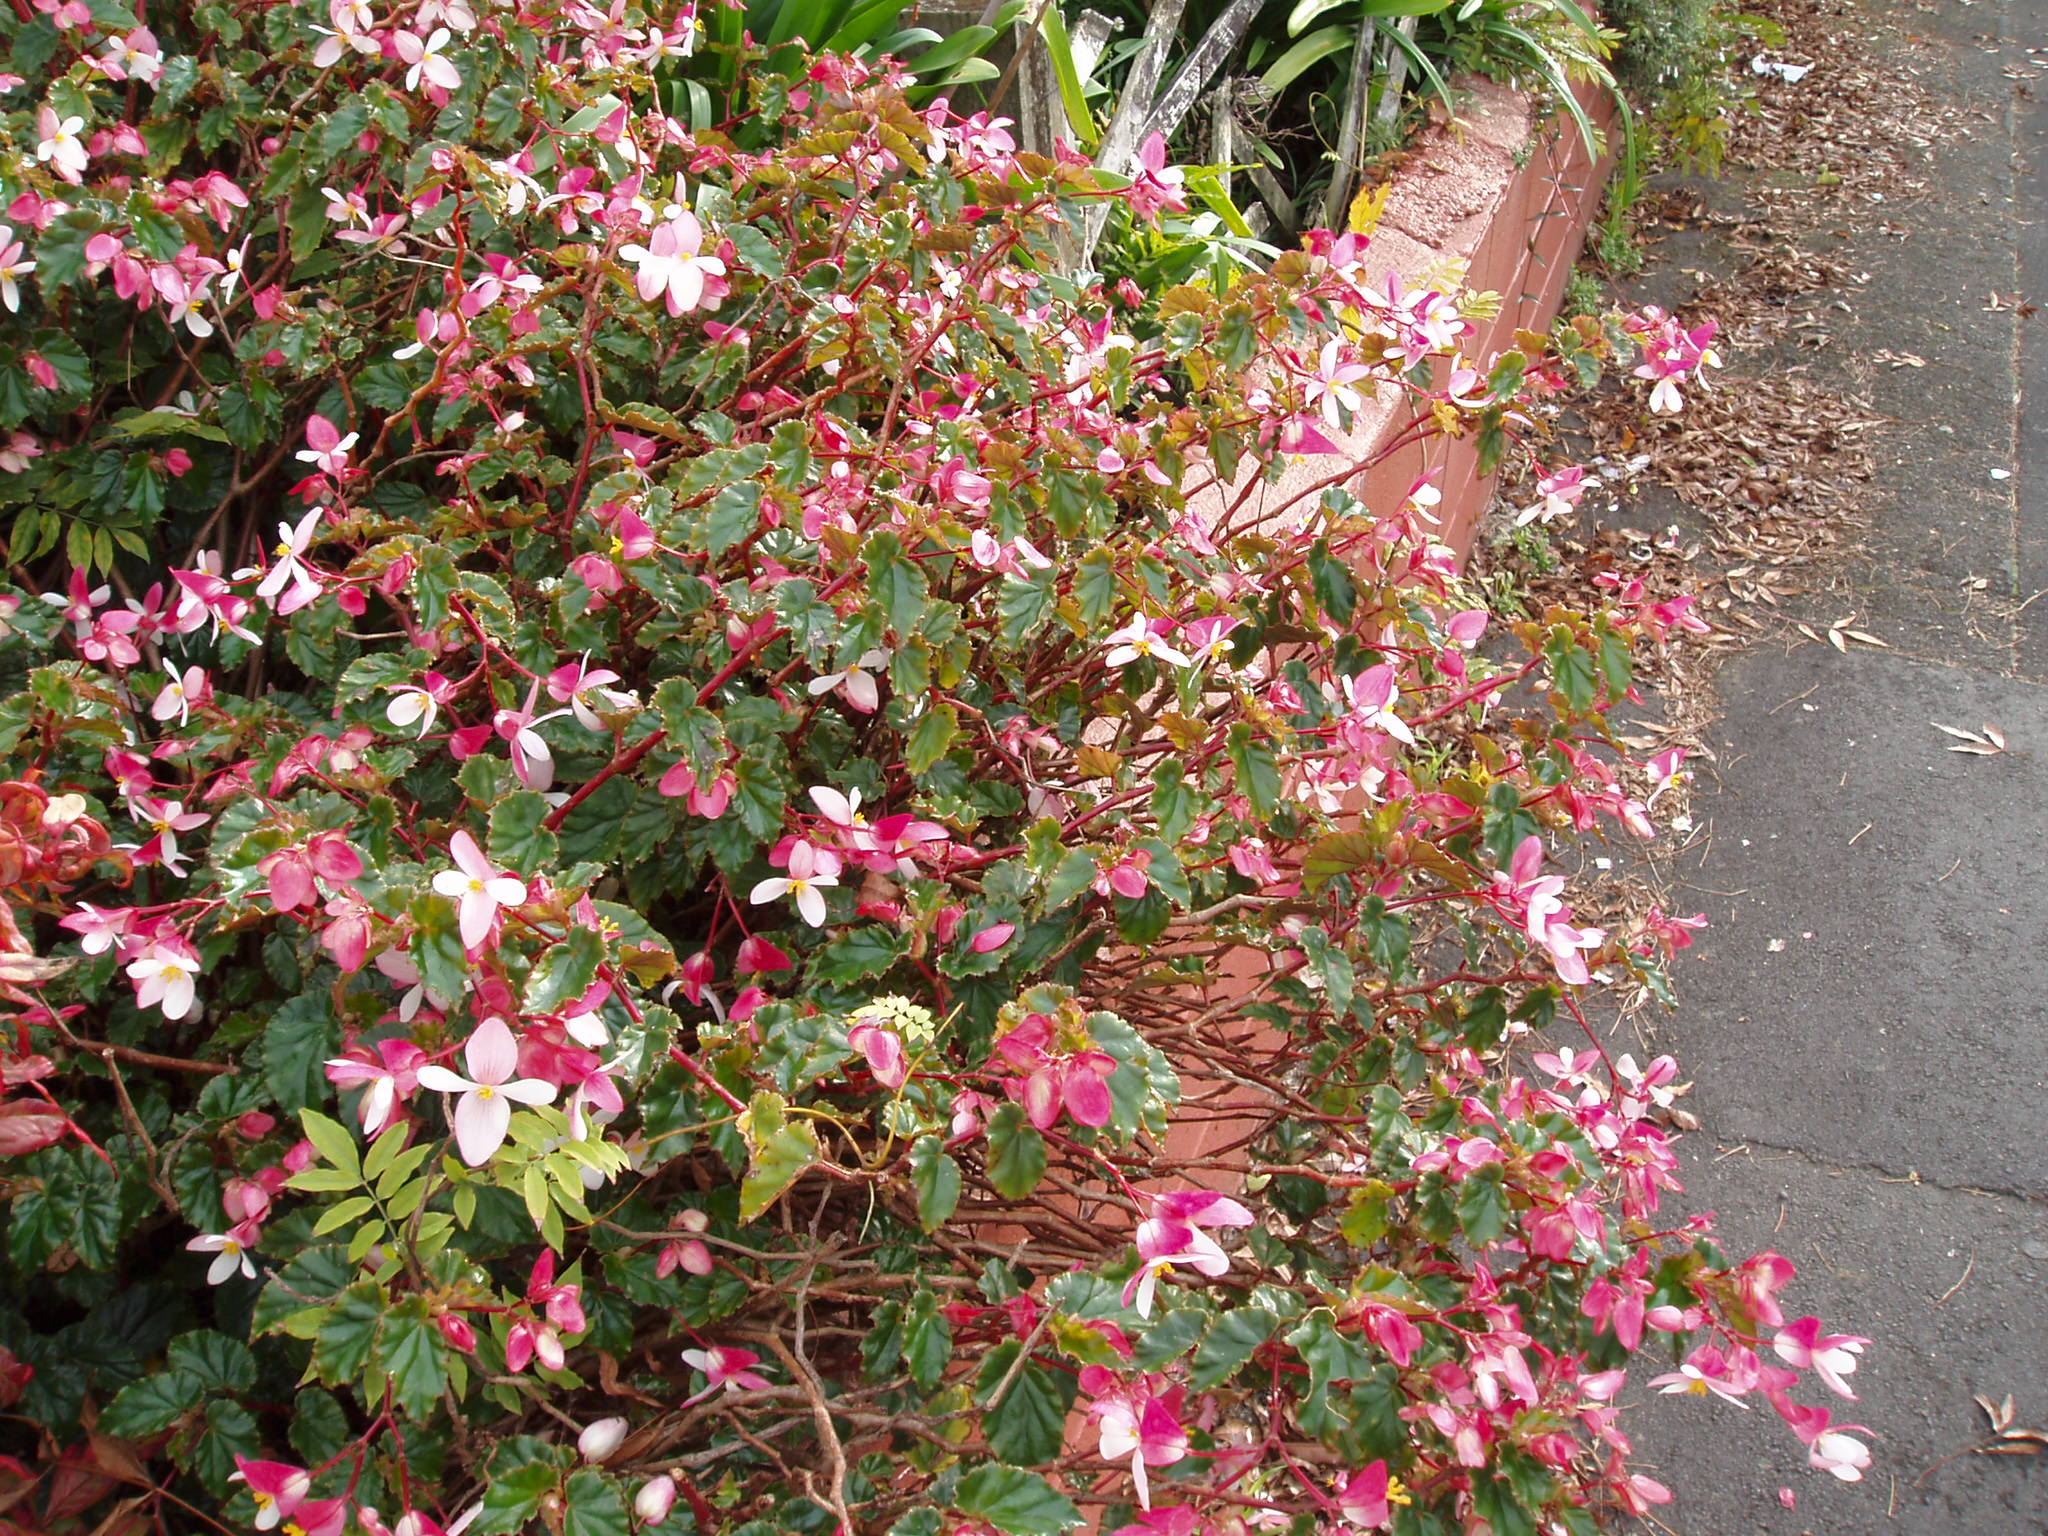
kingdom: Plantae
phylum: Tracheophyta
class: Magnoliopsida
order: Cucurbitales
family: Begoniaceae
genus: Begonia
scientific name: Begonia coccinea
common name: Angel-wing begonia
